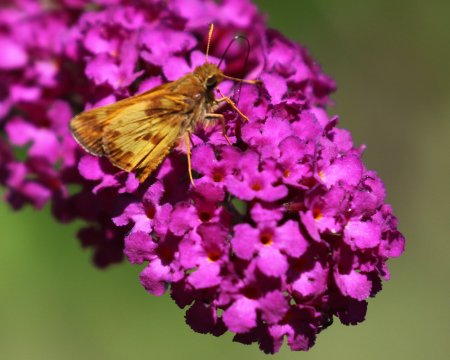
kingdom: Animalia
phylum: Arthropoda
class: Insecta
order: Lepidoptera
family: Hesperiidae
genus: Lon
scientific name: Lon zabulon
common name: Zabulon Skipper
